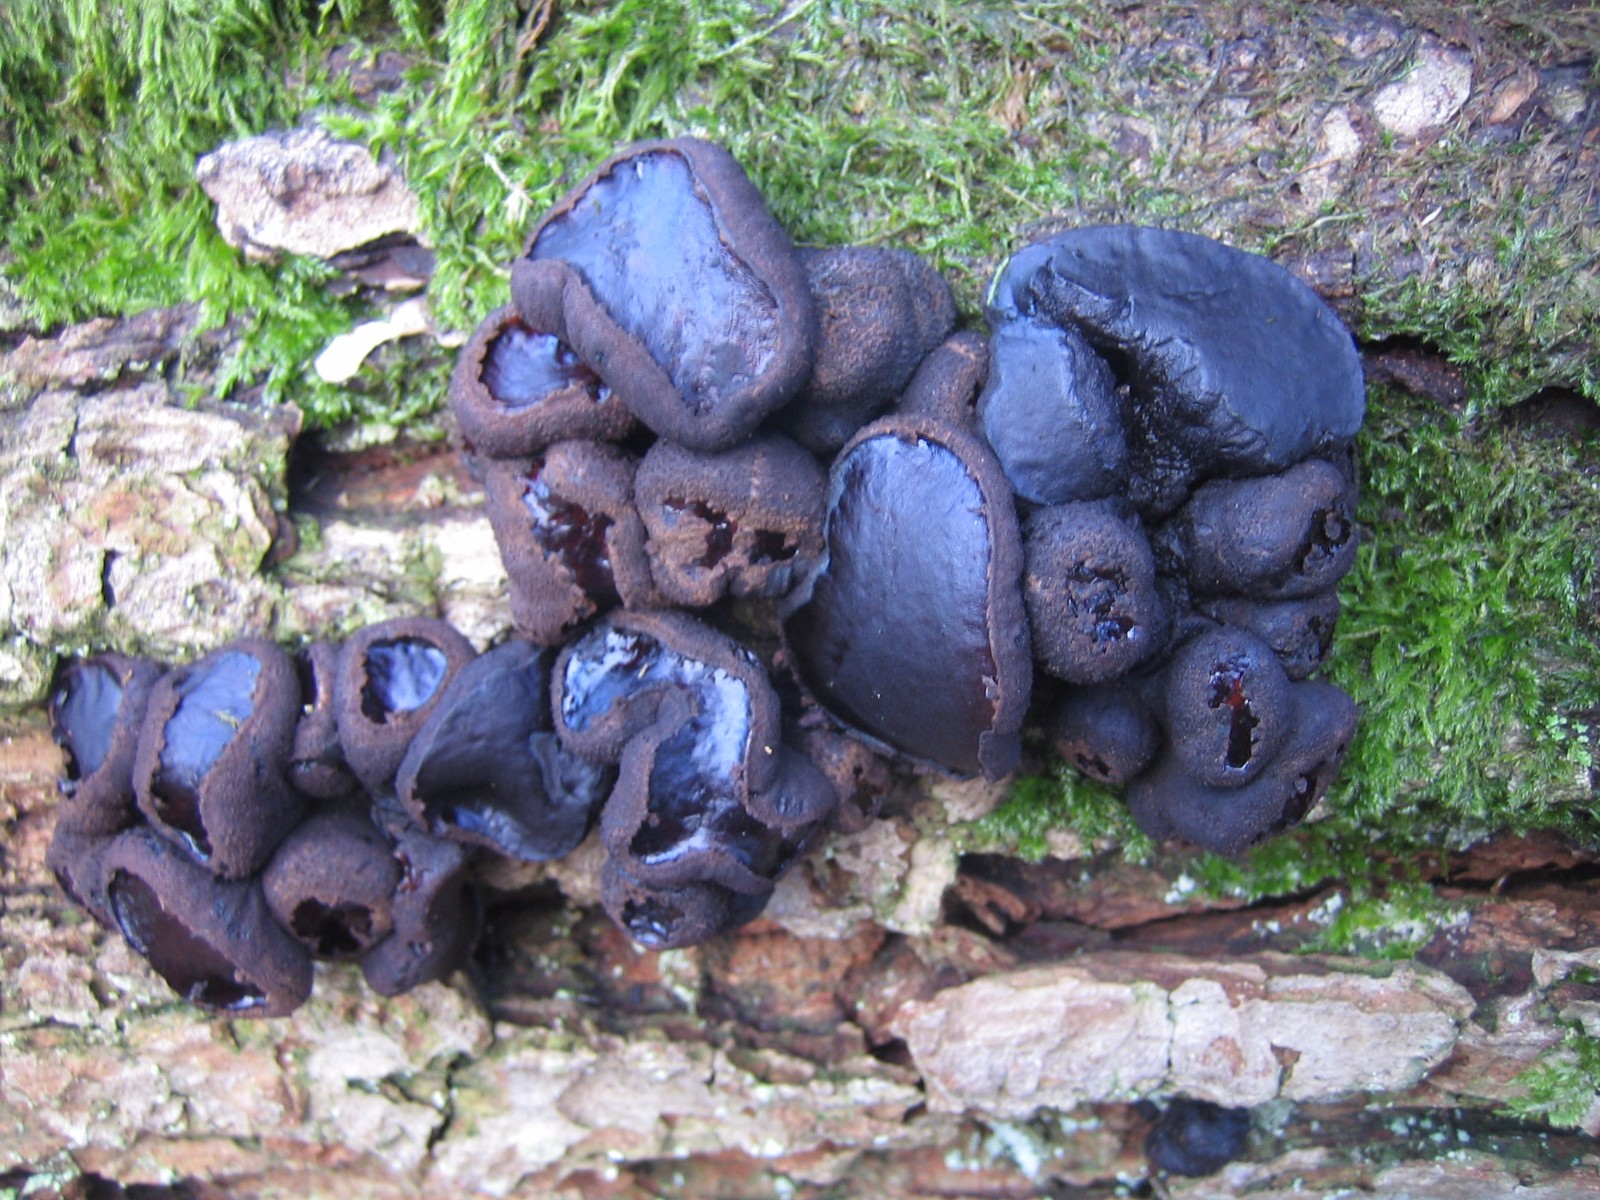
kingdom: Fungi
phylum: Ascomycota
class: Leotiomycetes
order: Phacidiales
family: Phacidiaceae
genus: Bulgaria
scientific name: Bulgaria inquinans
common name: afsmittende topsvamp
